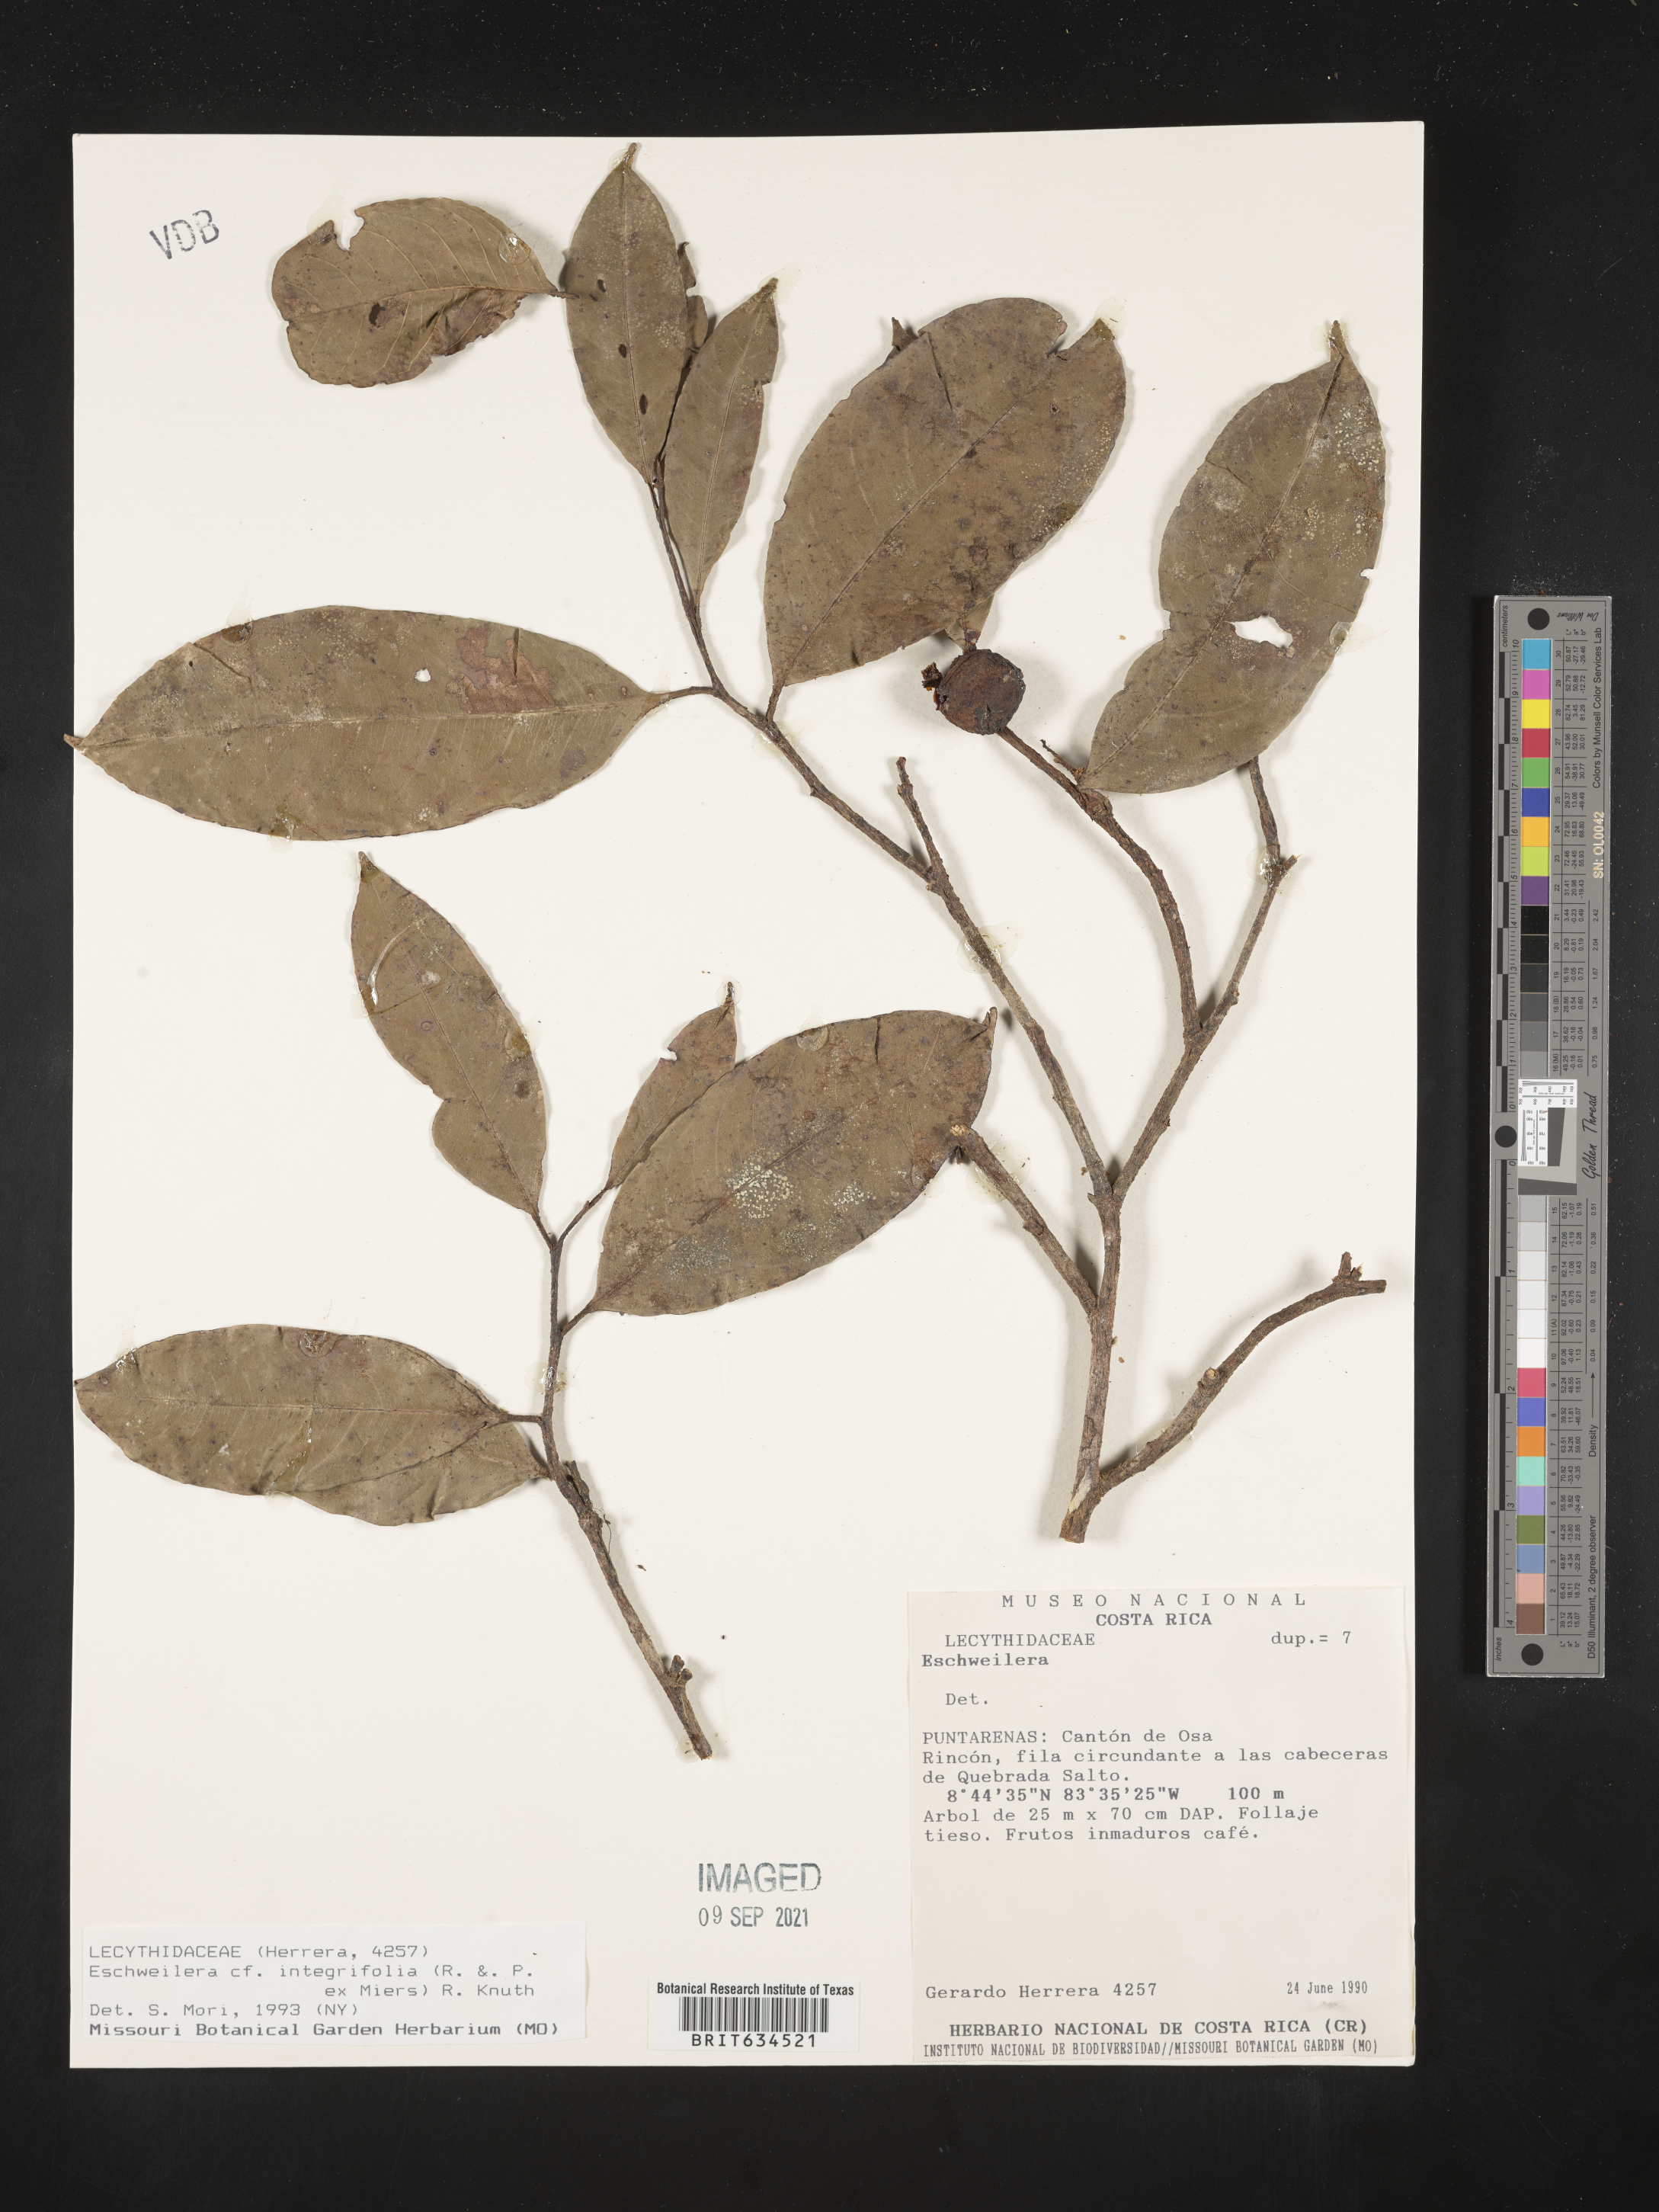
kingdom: Plantae
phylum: Tracheophyta
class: Magnoliopsida
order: Ericales
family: Lecythidaceae
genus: Eschweilera
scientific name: Eschweilera
